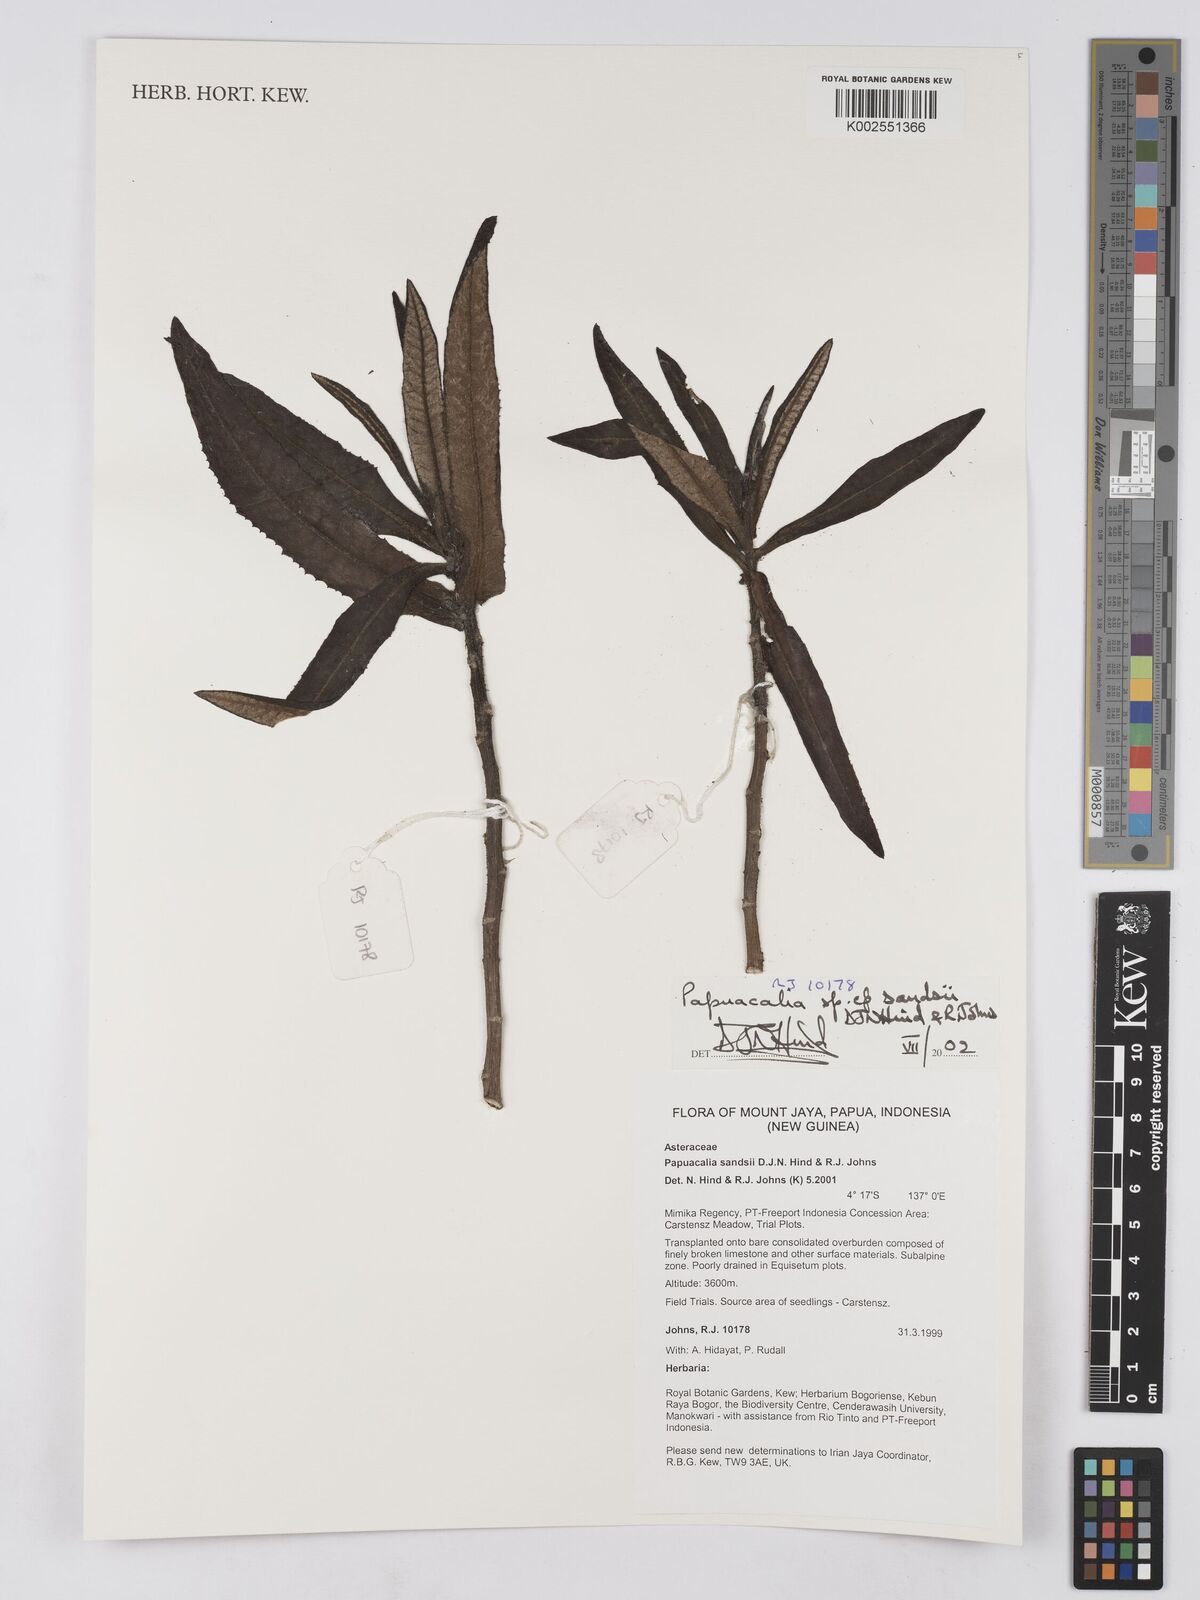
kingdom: Plantae
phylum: Tracheophyta
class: Magnoliopsida
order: Asterales
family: Asteraceae
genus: Papuacalia
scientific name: Papuacalia sandsii
